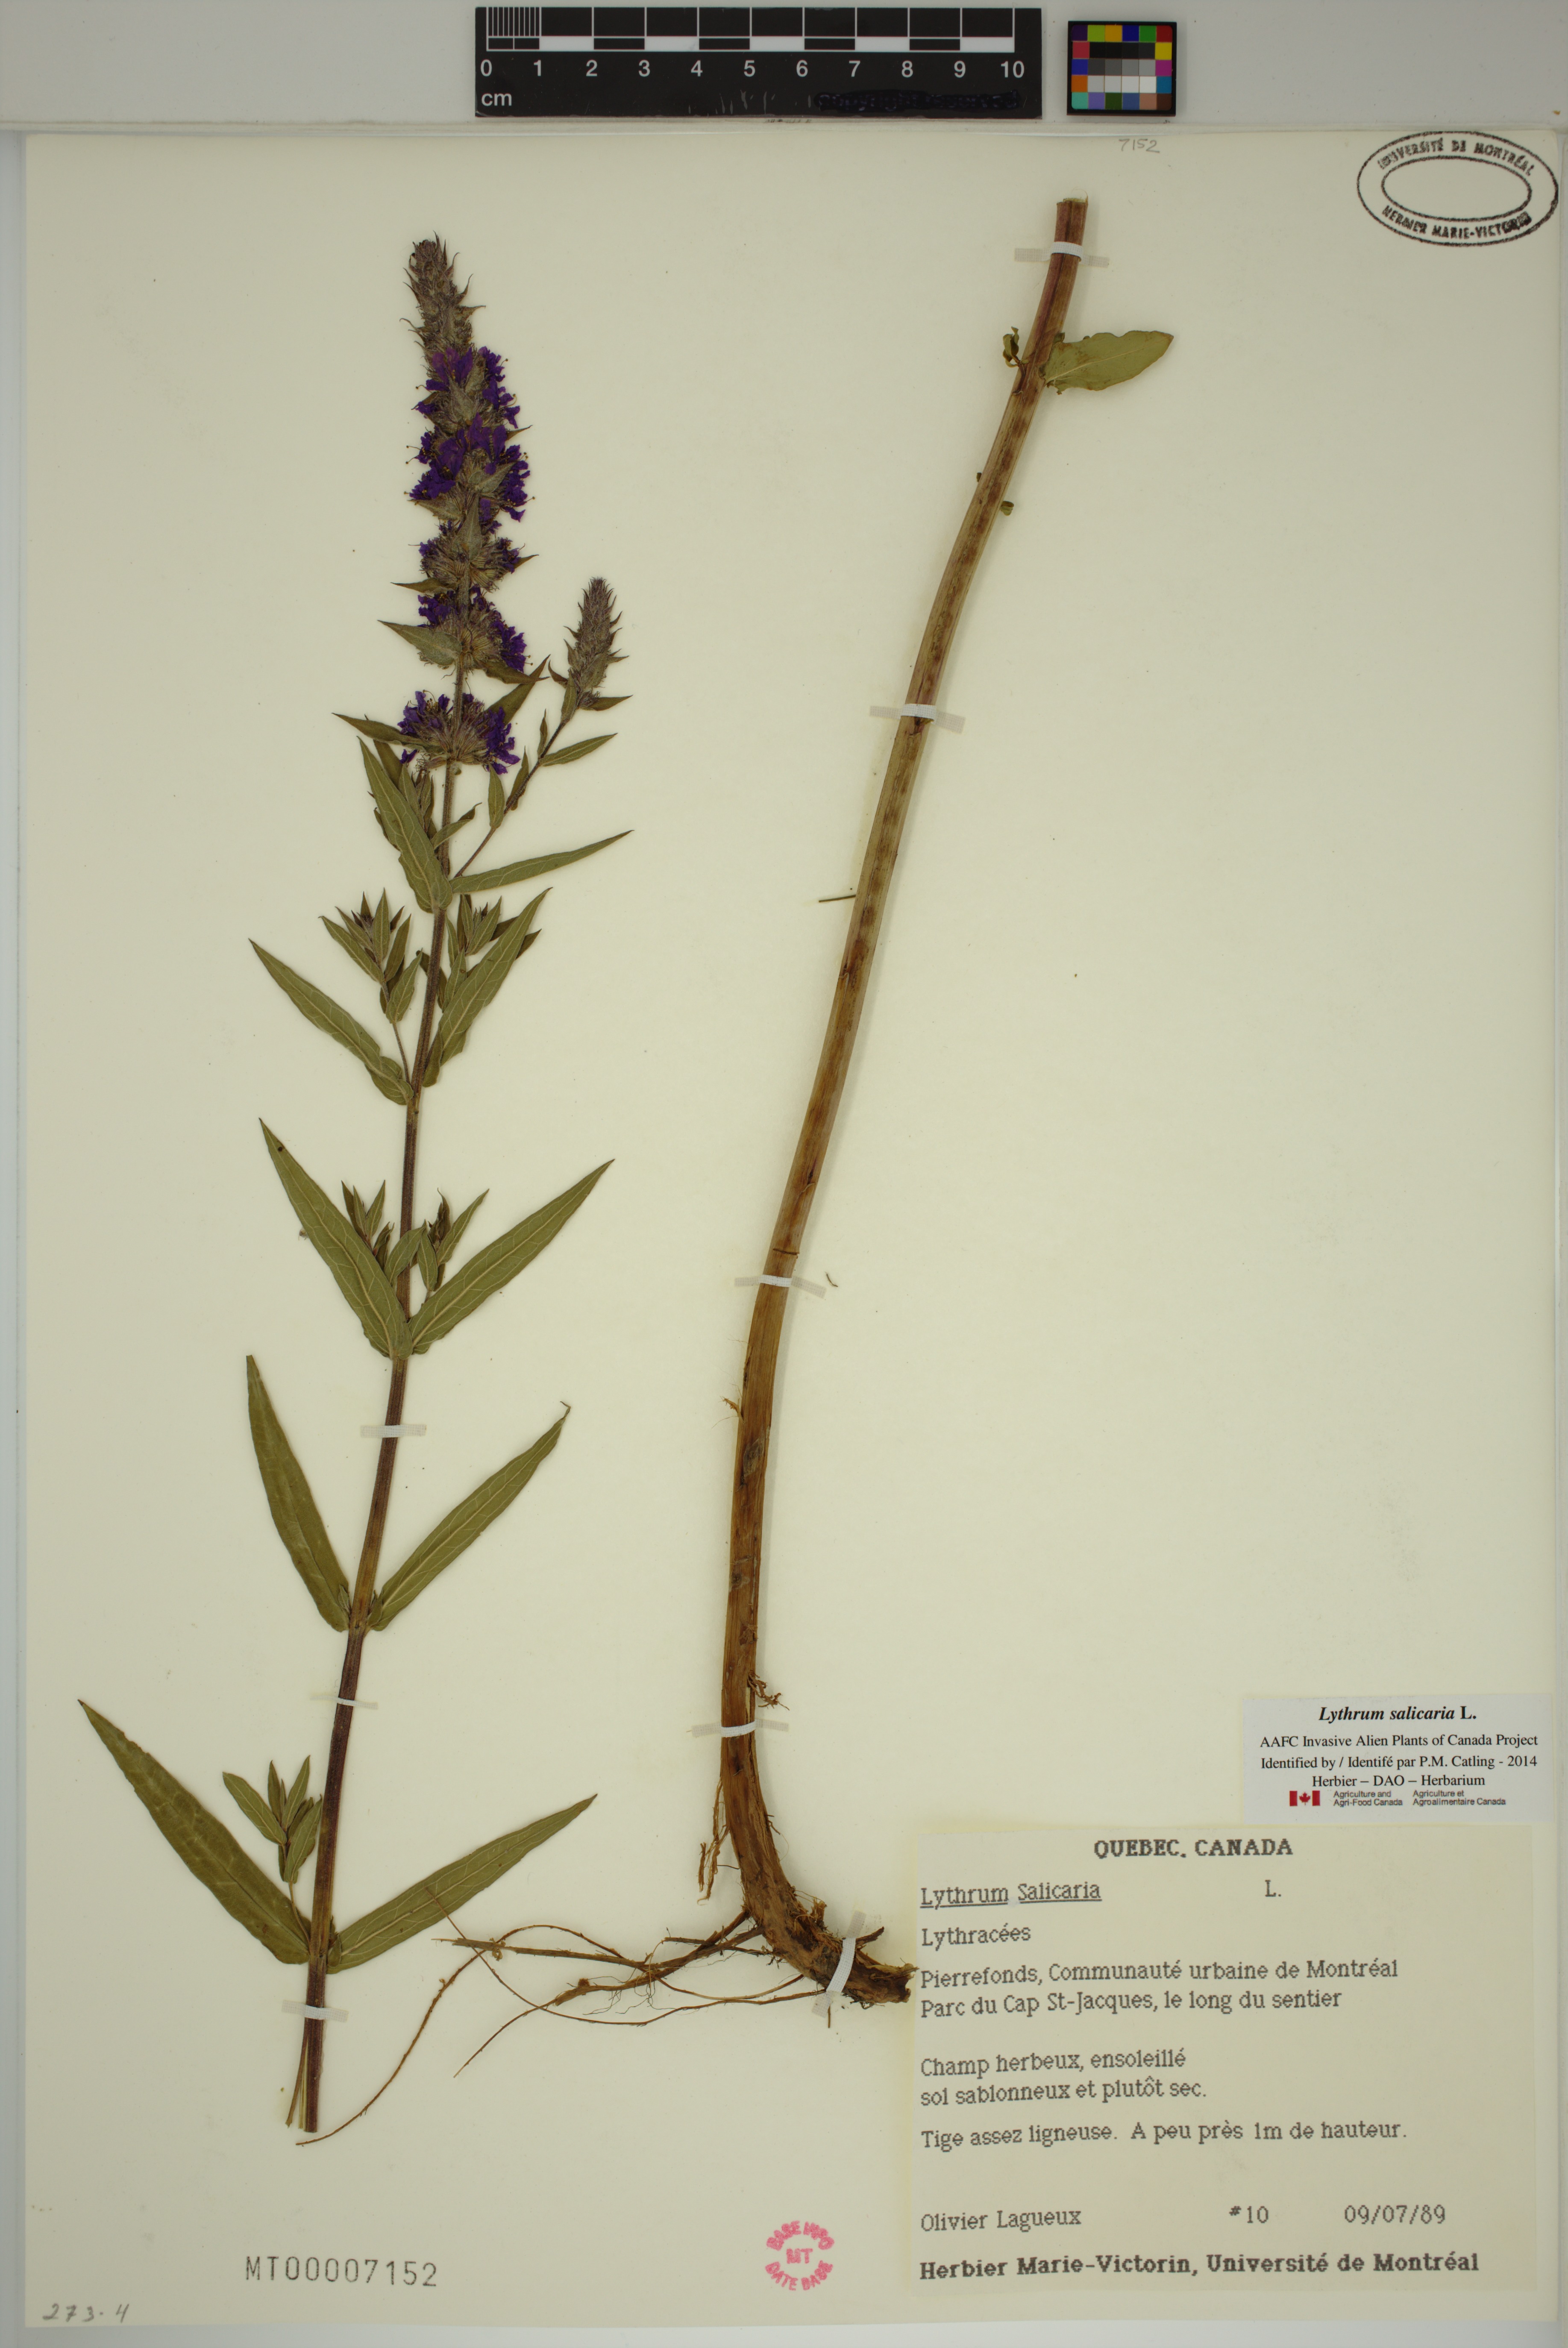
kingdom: Plantae
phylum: Tracheophyta
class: Magnoliopsida
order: Myrtales
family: Lythraceae
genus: Lythrum
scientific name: Lythrum salicaria
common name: Purple loosestrife
